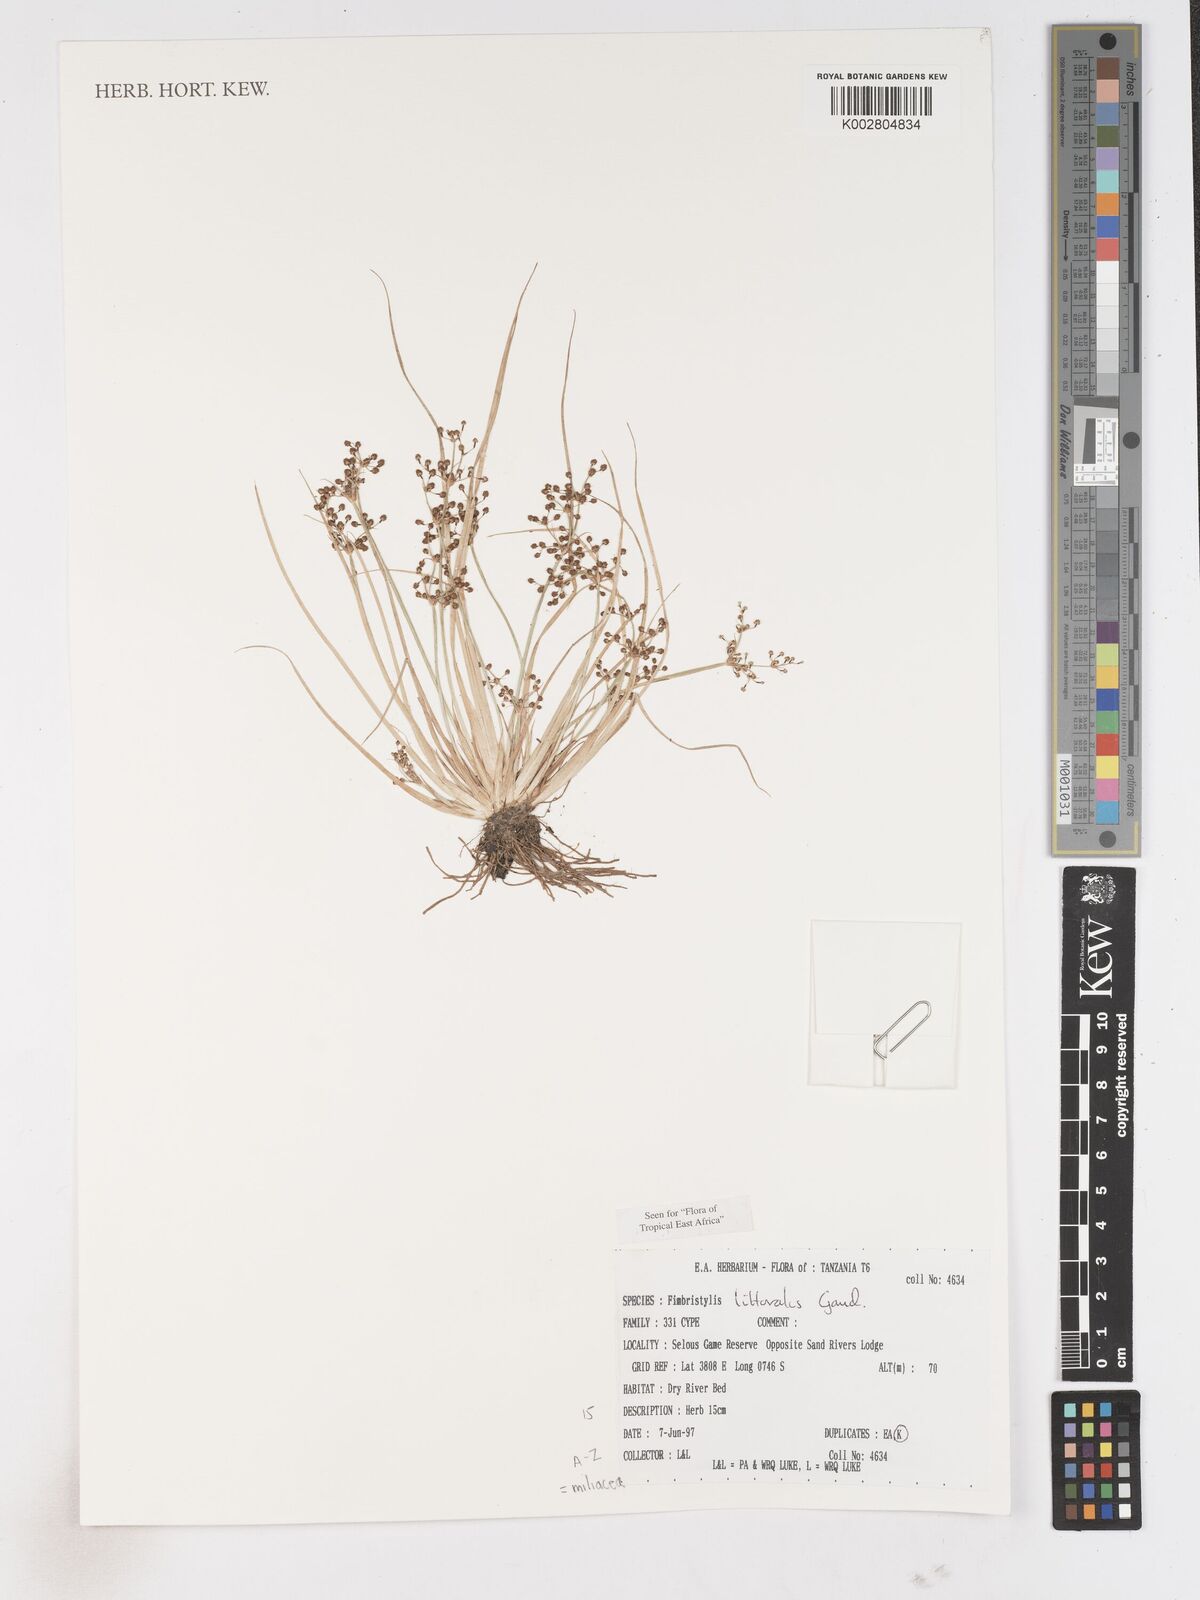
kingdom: Plantae
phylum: Tracheophyta
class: Liliopsida
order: Poales
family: Cyperaceae
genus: Fimbristylis
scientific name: Fimbristylis littoralis
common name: Fimbry
